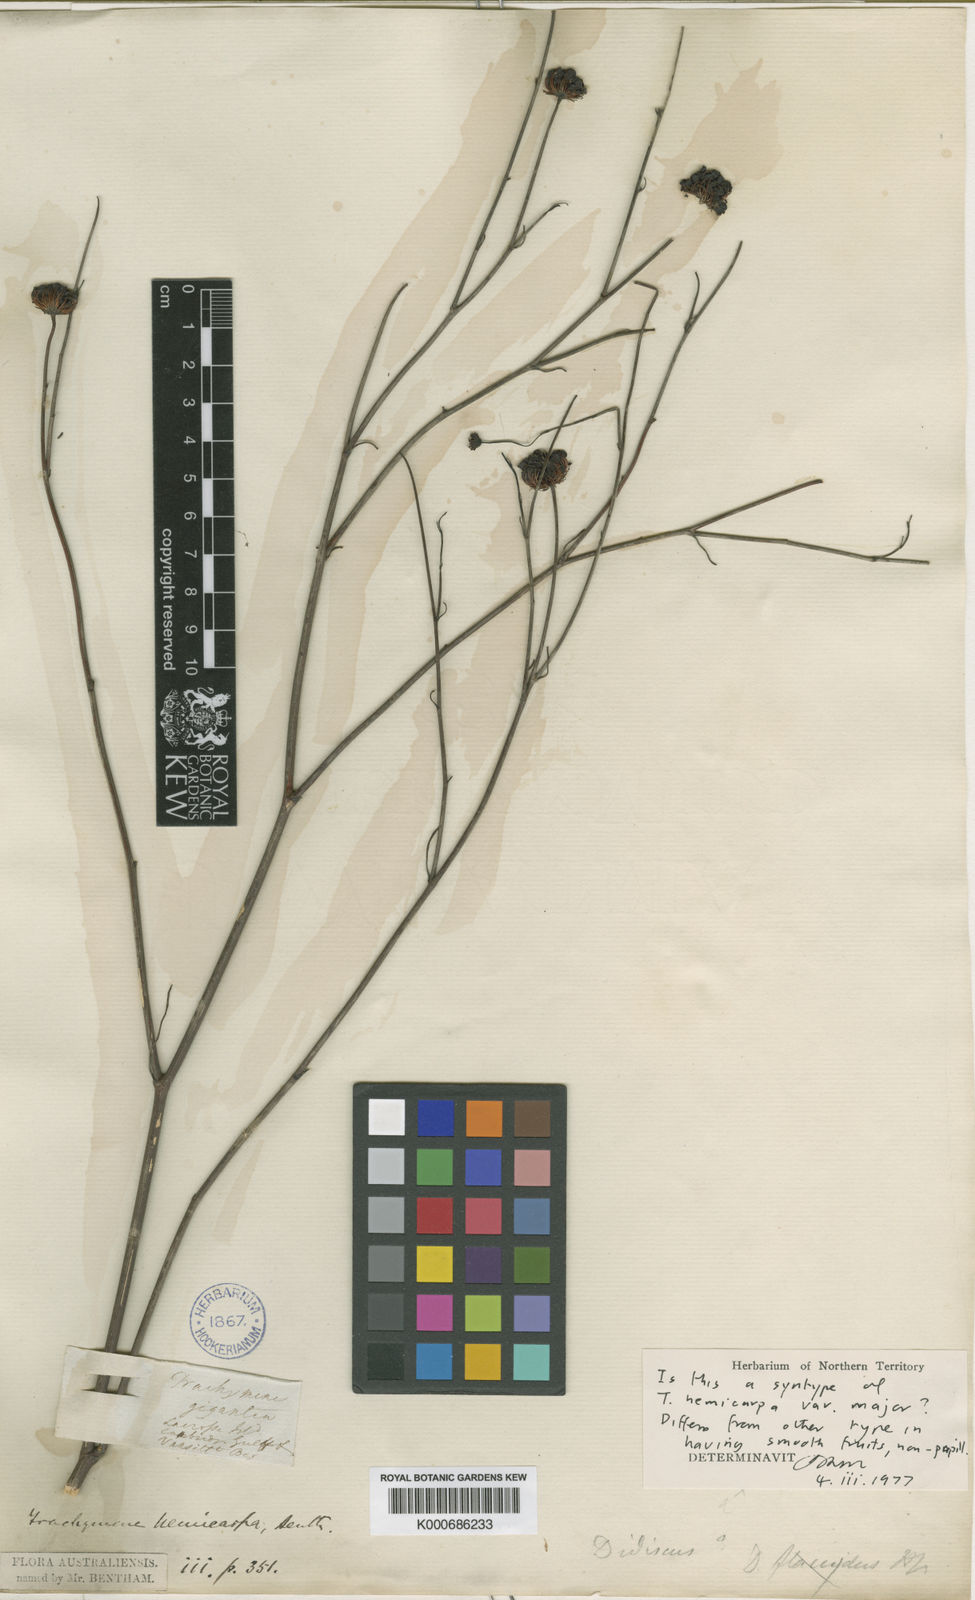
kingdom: Plantae
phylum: Tracheophyta
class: Magnoliopsida
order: Apiales
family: Araliaceae
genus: Trachymene
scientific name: Trachymene didiscoides
